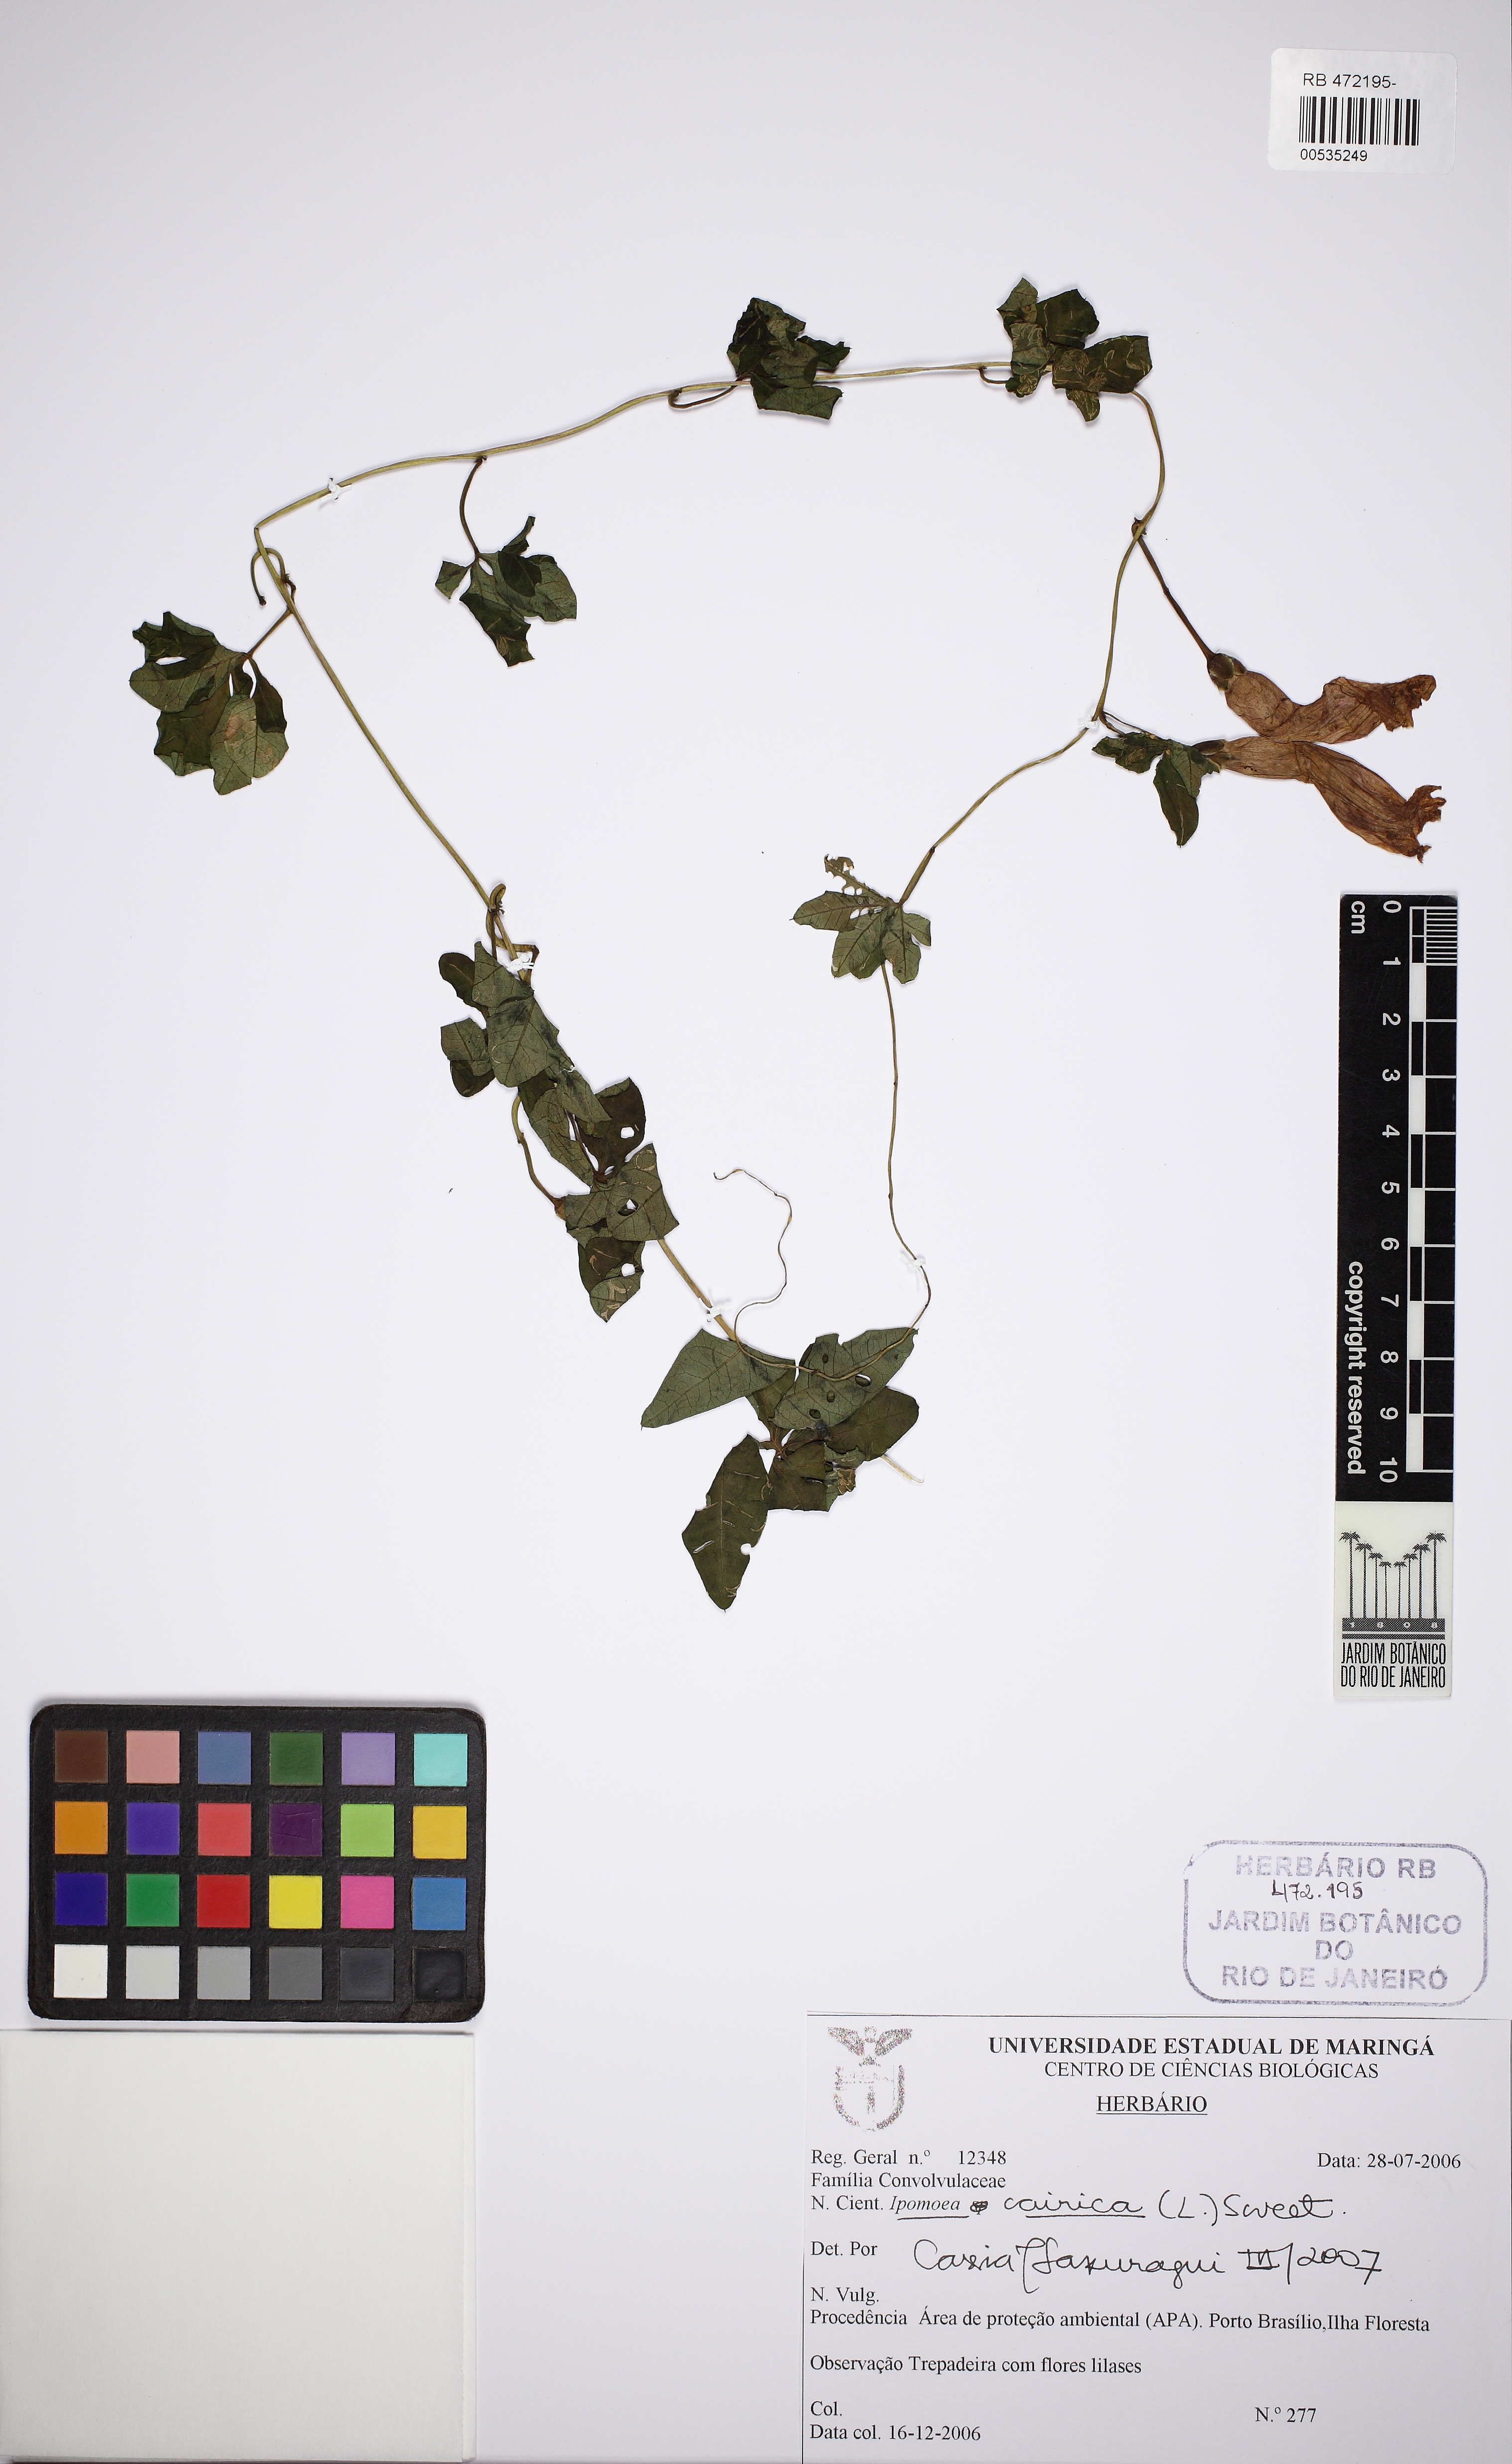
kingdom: Plantae
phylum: Tracheophyta
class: Magnoliopsida
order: Solanales
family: Convolvulaceae
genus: Ipomoea
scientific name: Ipomoea cairica
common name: Mile a minute vine
